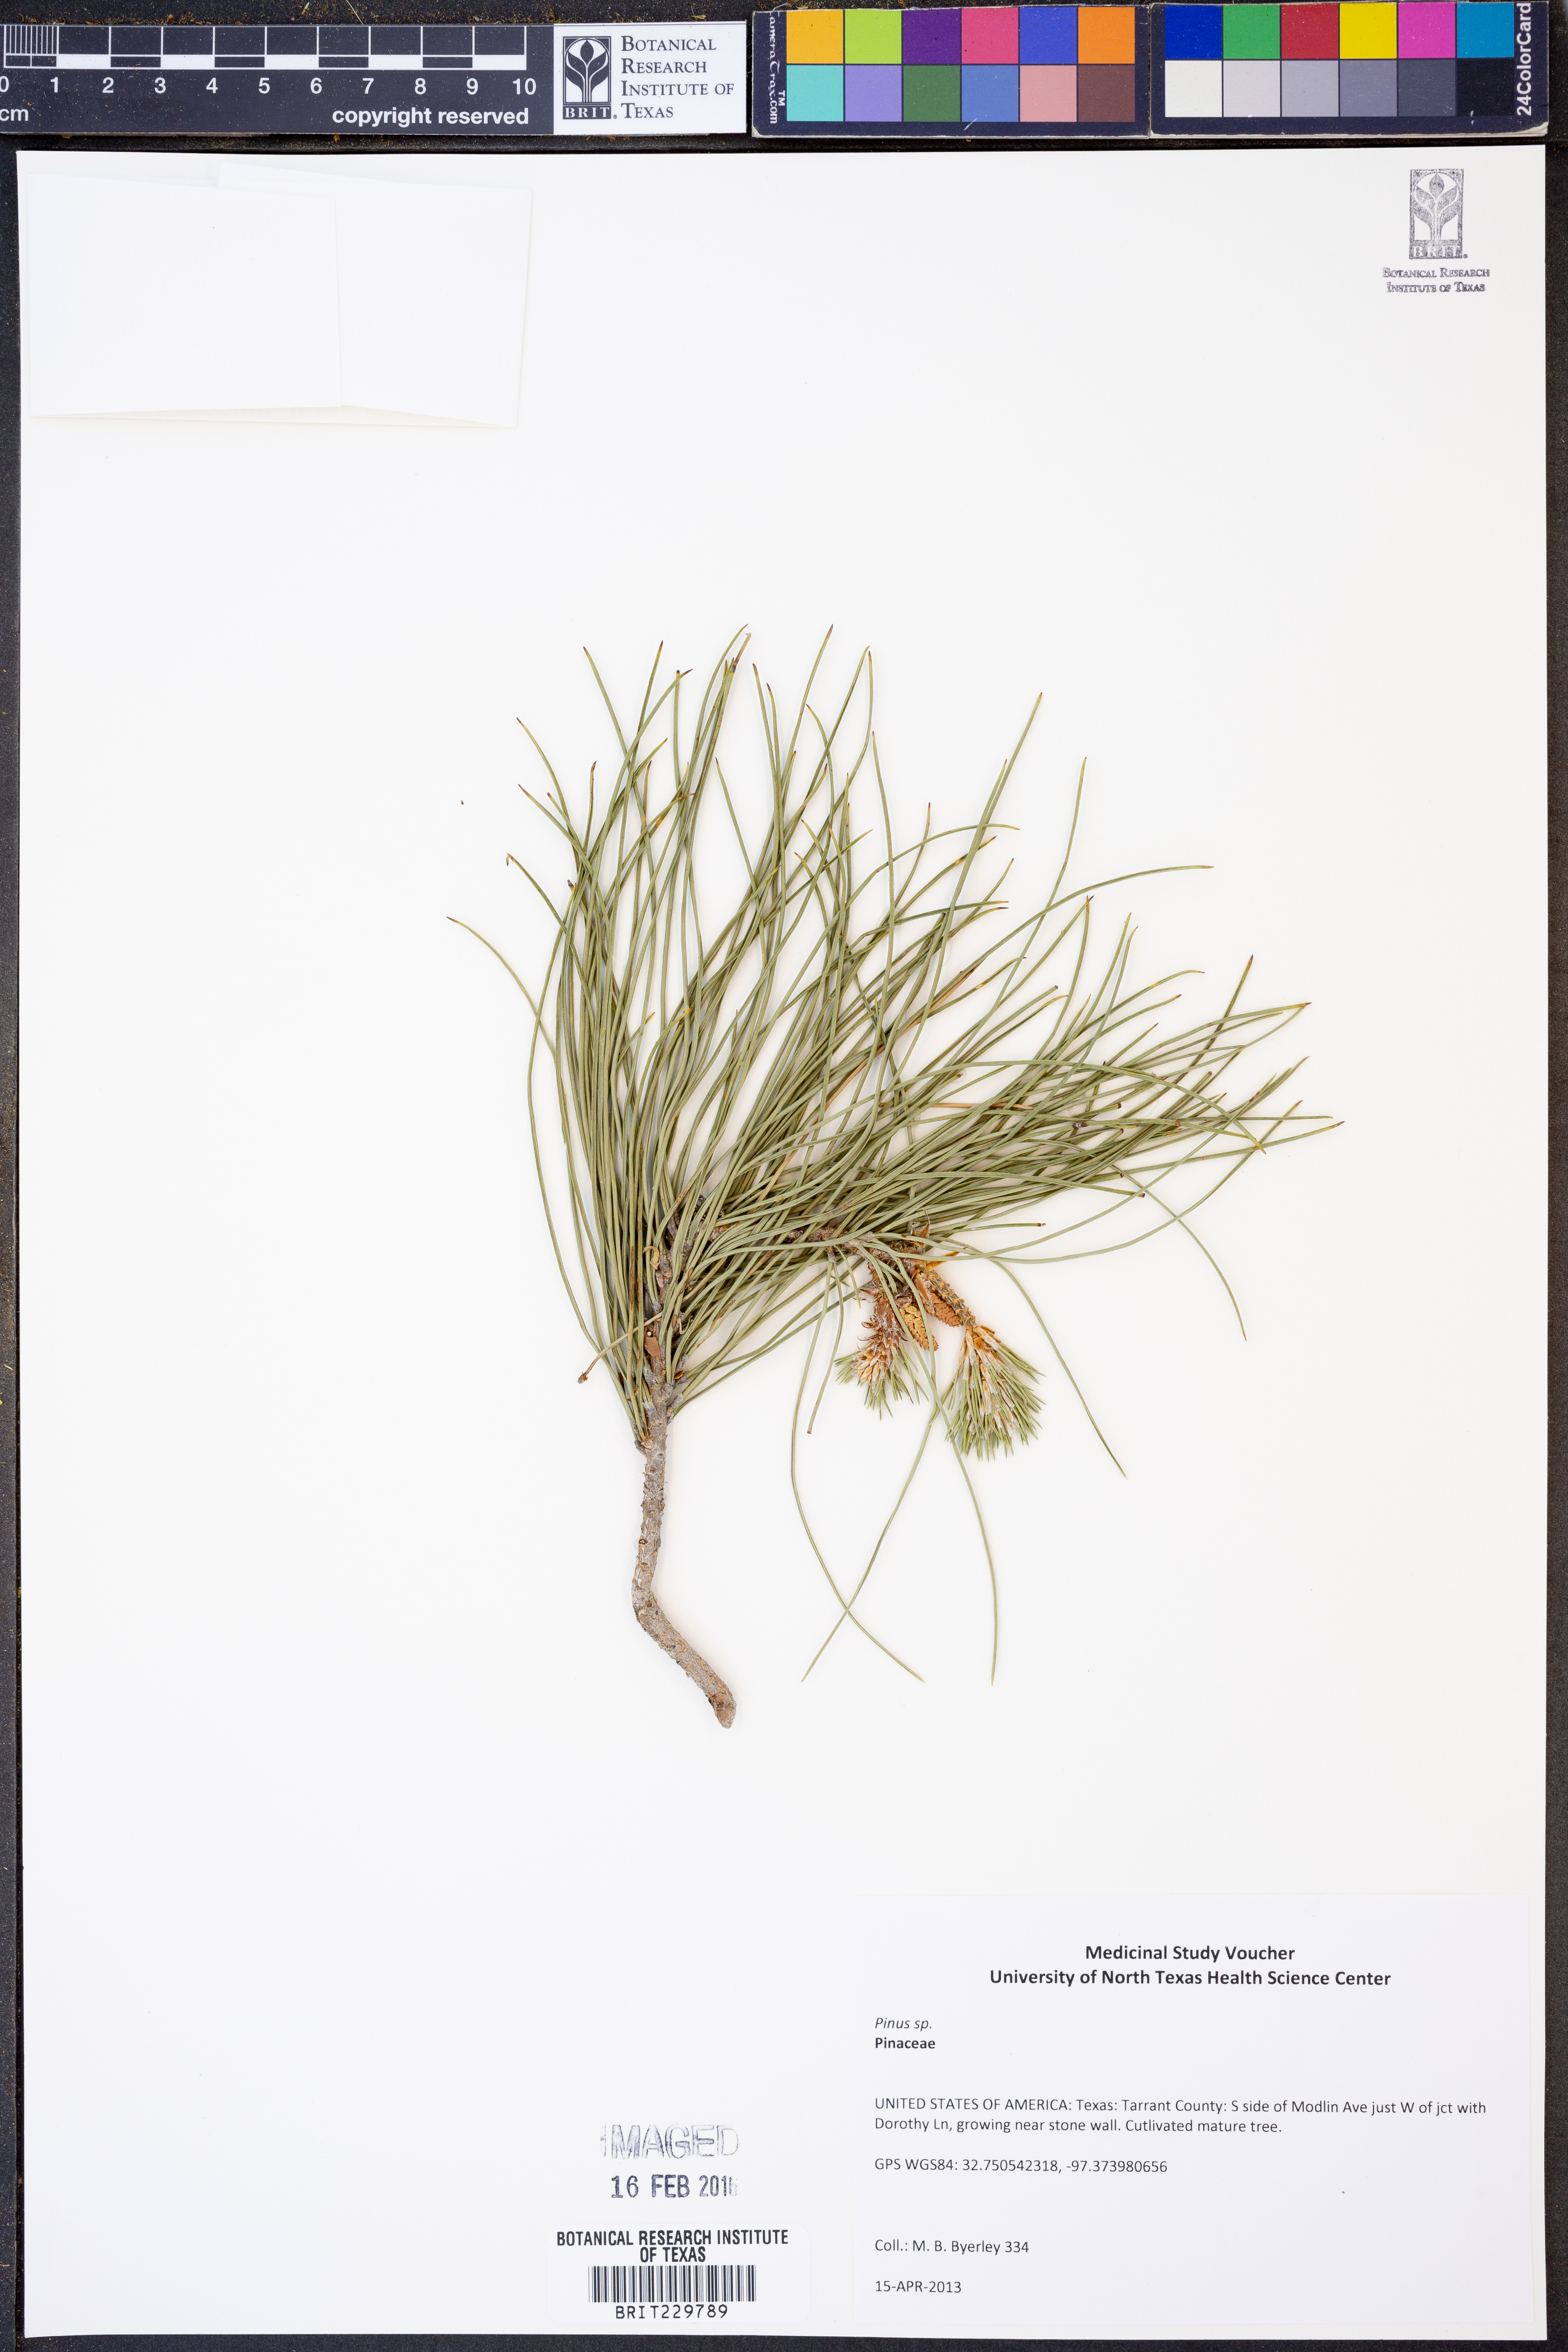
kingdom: Plantae
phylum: Tracheophyta
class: Pinopsida
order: Pinales
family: Pinaceae
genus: Pinus
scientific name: Pinus
